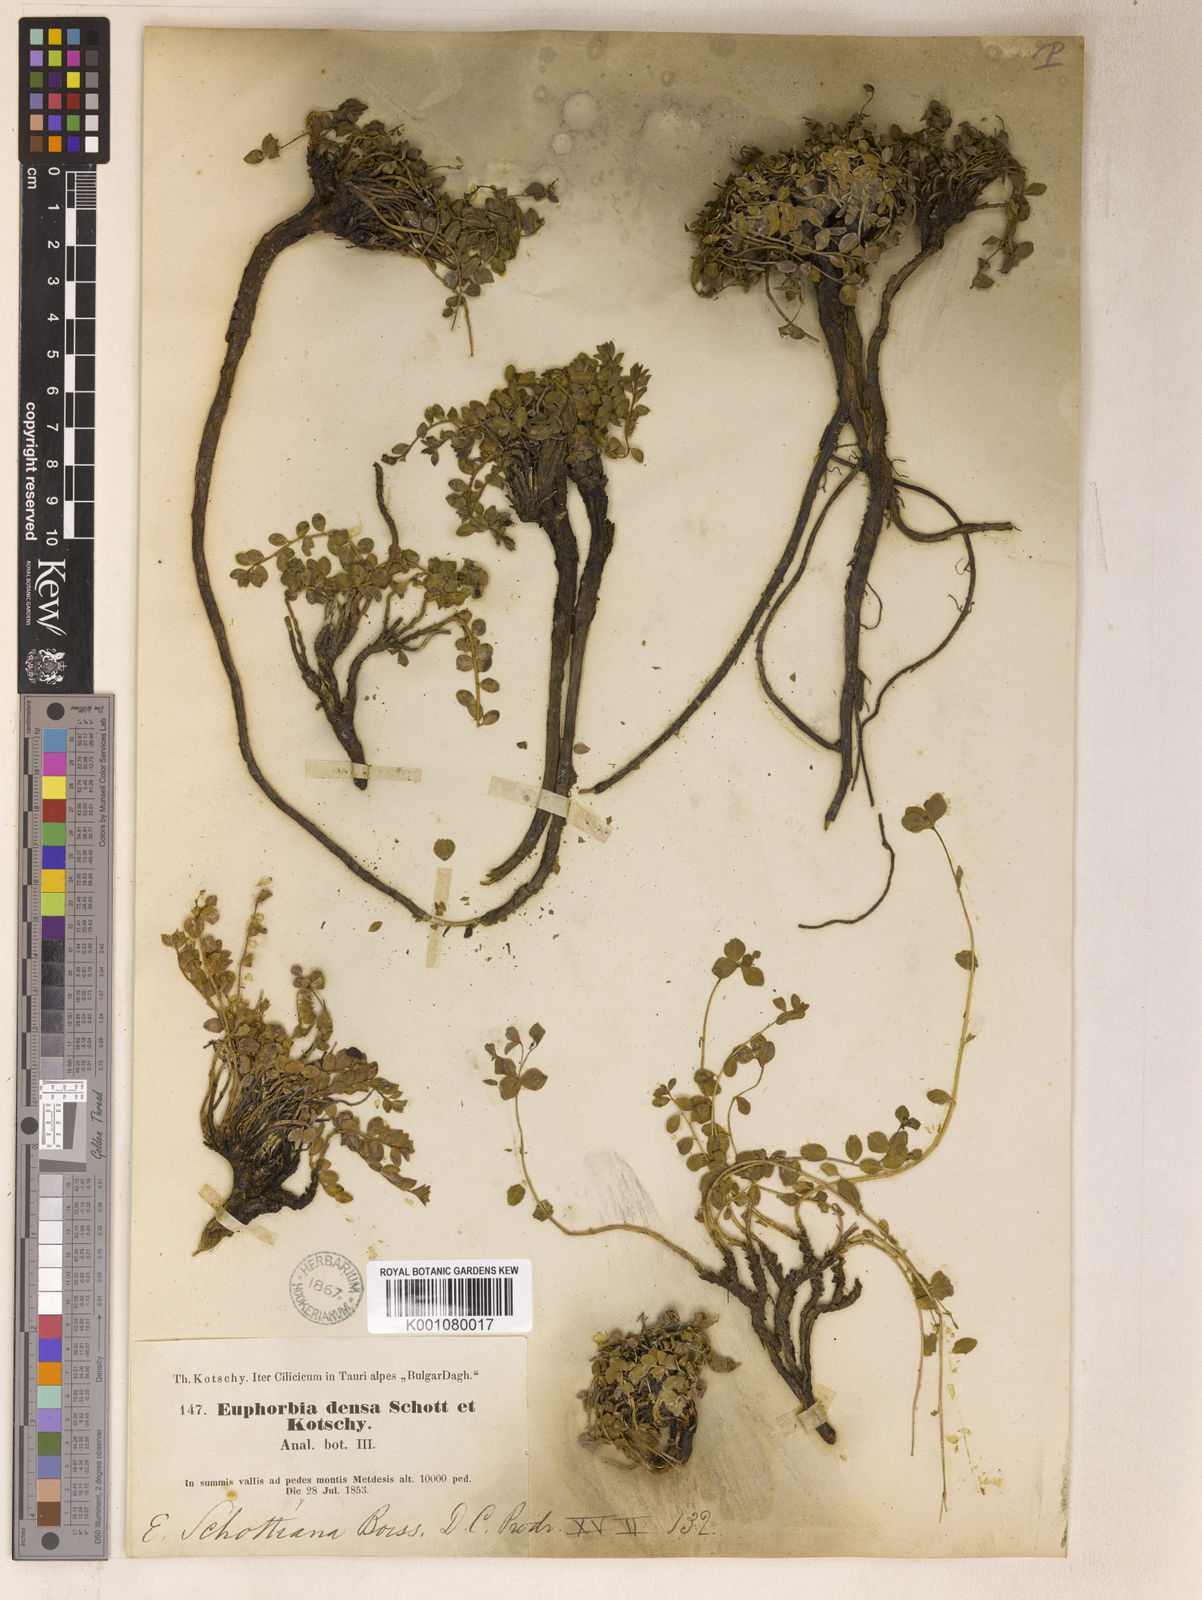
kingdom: Plantae
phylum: Tracheophyta
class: Magnoliopsida
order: Malpighiales
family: Euphorbiaceae
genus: Euphorbia
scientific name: Euphorbia schottiana
